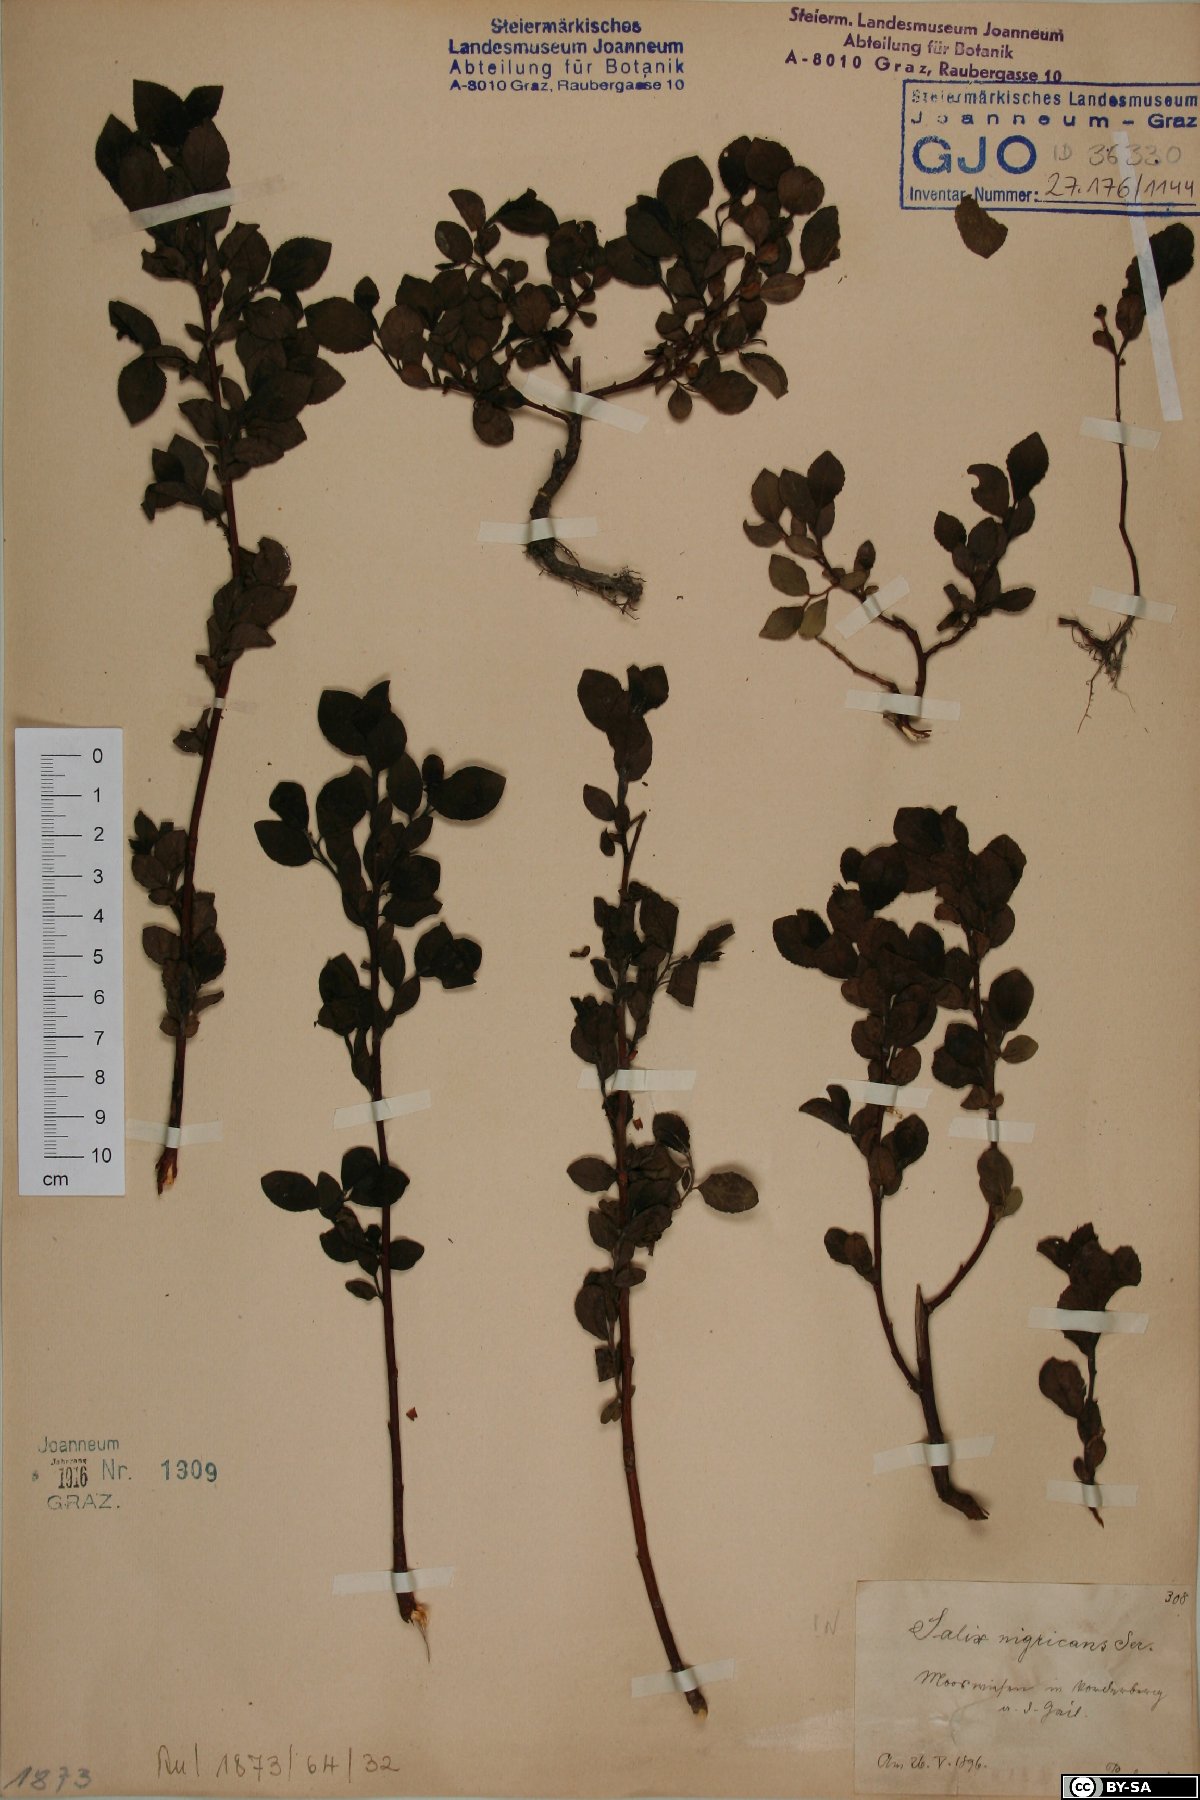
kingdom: Plantae
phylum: Tracheophyta
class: Magnoliopsida
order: Malpighiales
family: Salicaceae
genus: Salix
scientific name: Salix myrsinifolia
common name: Dark-leaved willow
